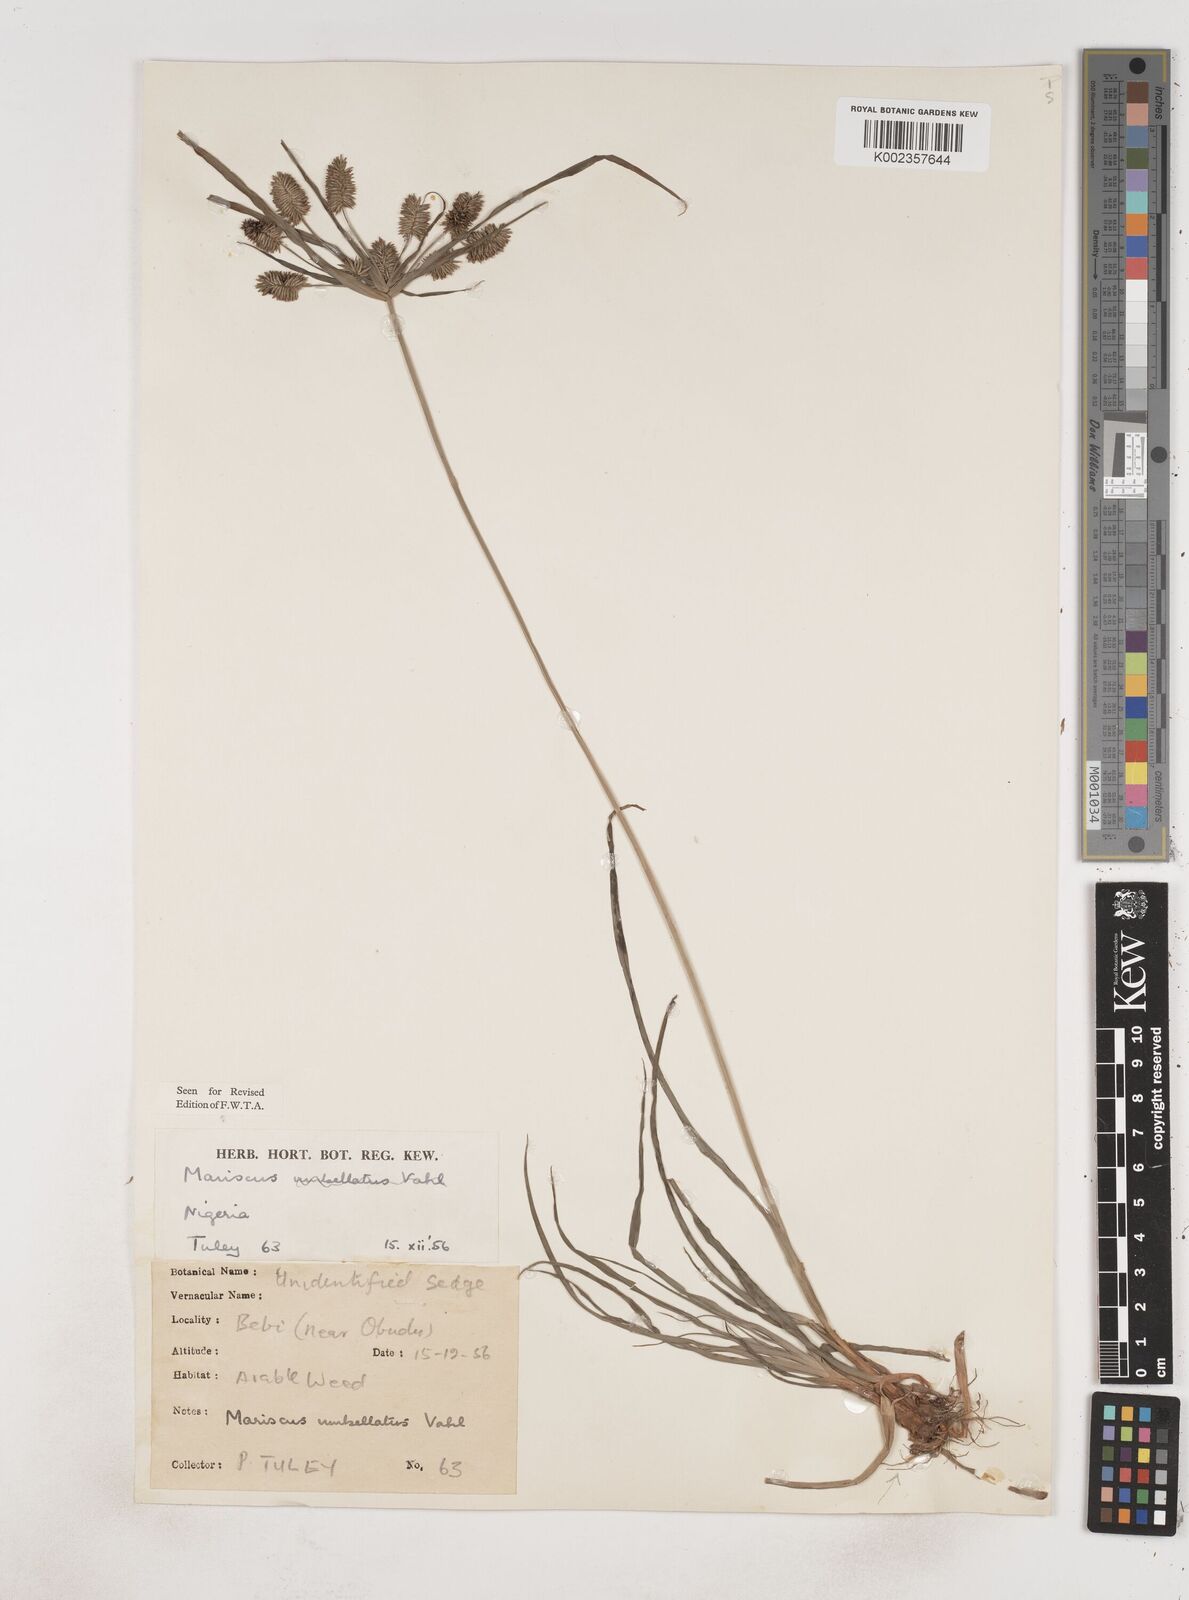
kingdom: Plantae
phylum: Tracheophyta
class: Liliopsida
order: Poales
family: Cyperaceae
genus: Cyperus
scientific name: Cyperus cyperoides
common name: Pacific island flat sedge
